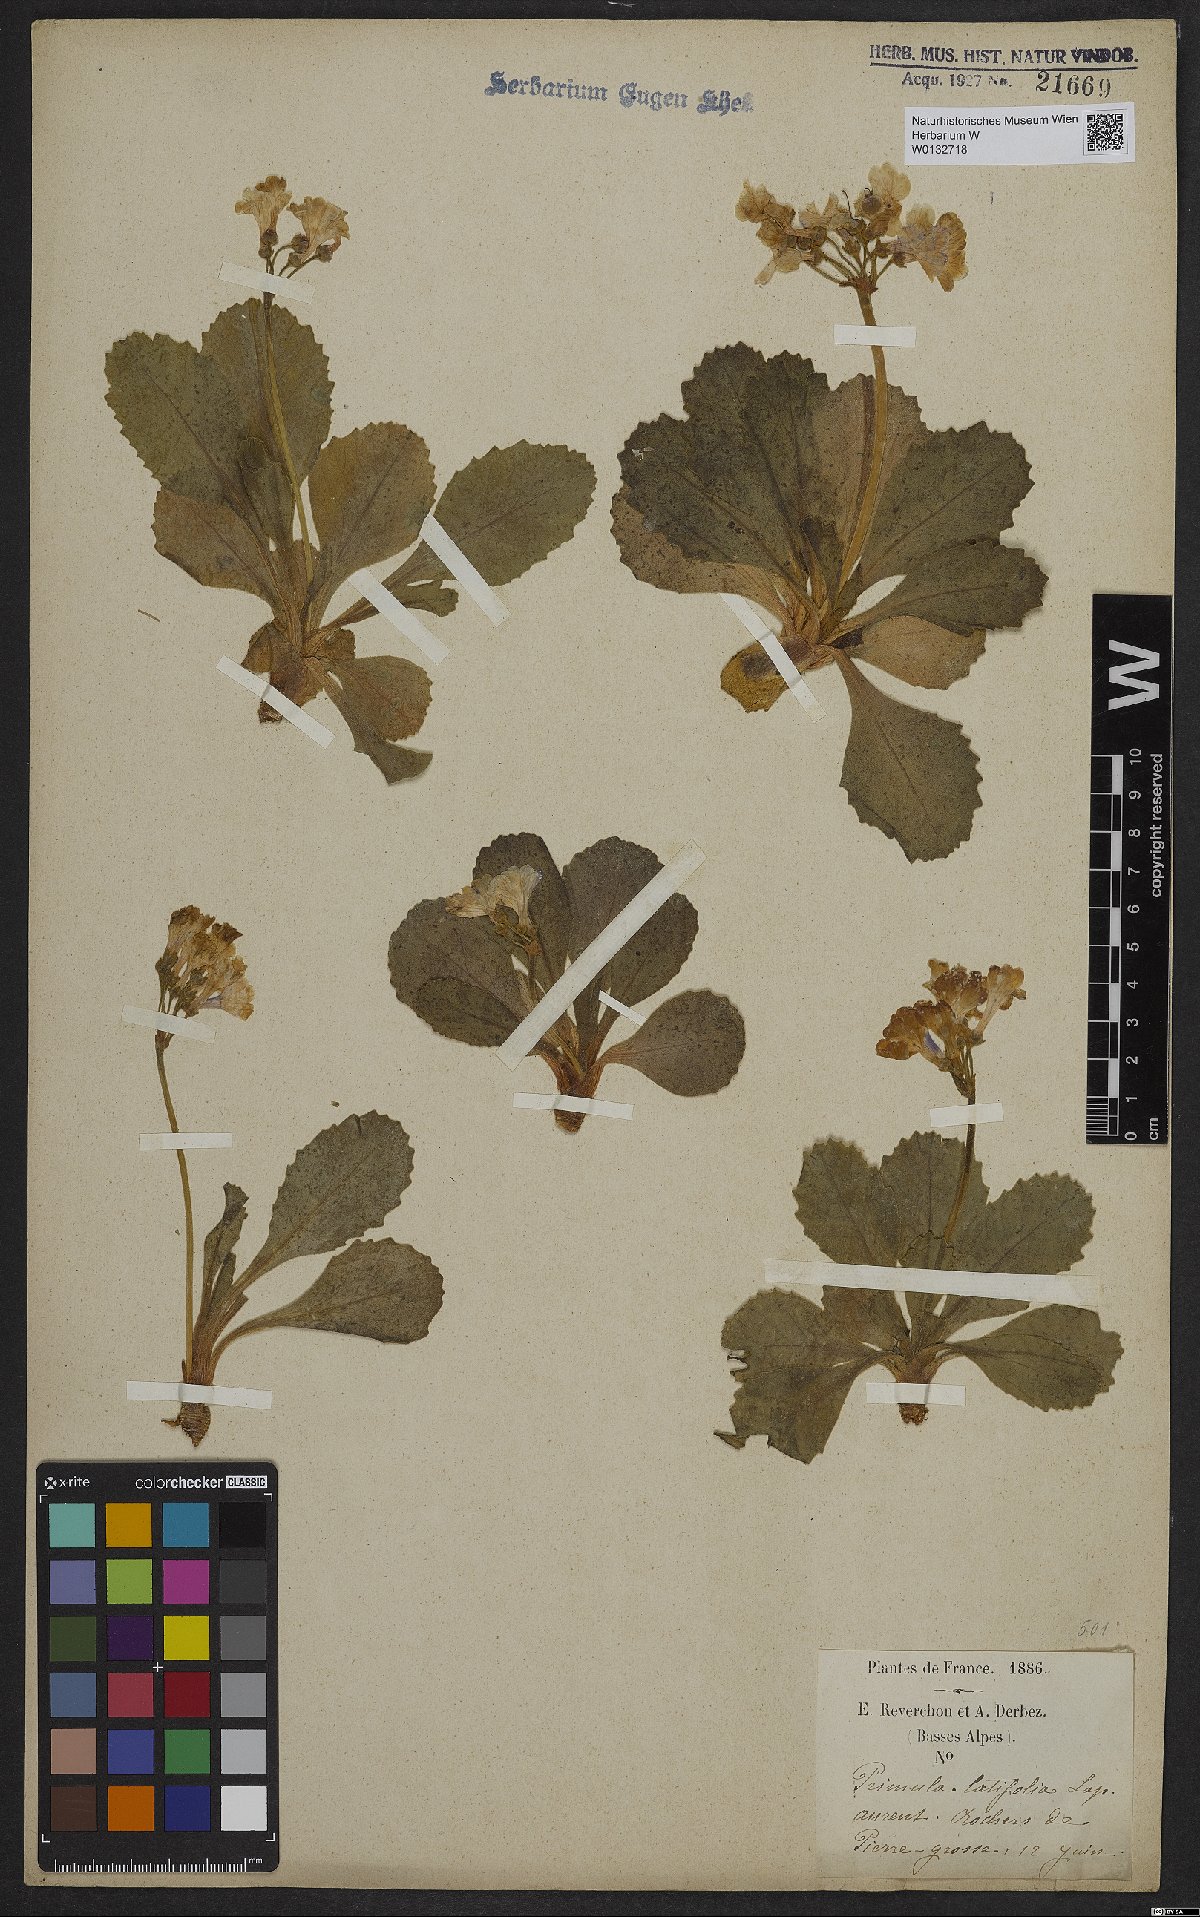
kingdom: Plantae
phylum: Tracheophyta
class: Magnoliopsida
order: Ericales
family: Primulaceae
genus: Primula
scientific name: Primula latifolia
